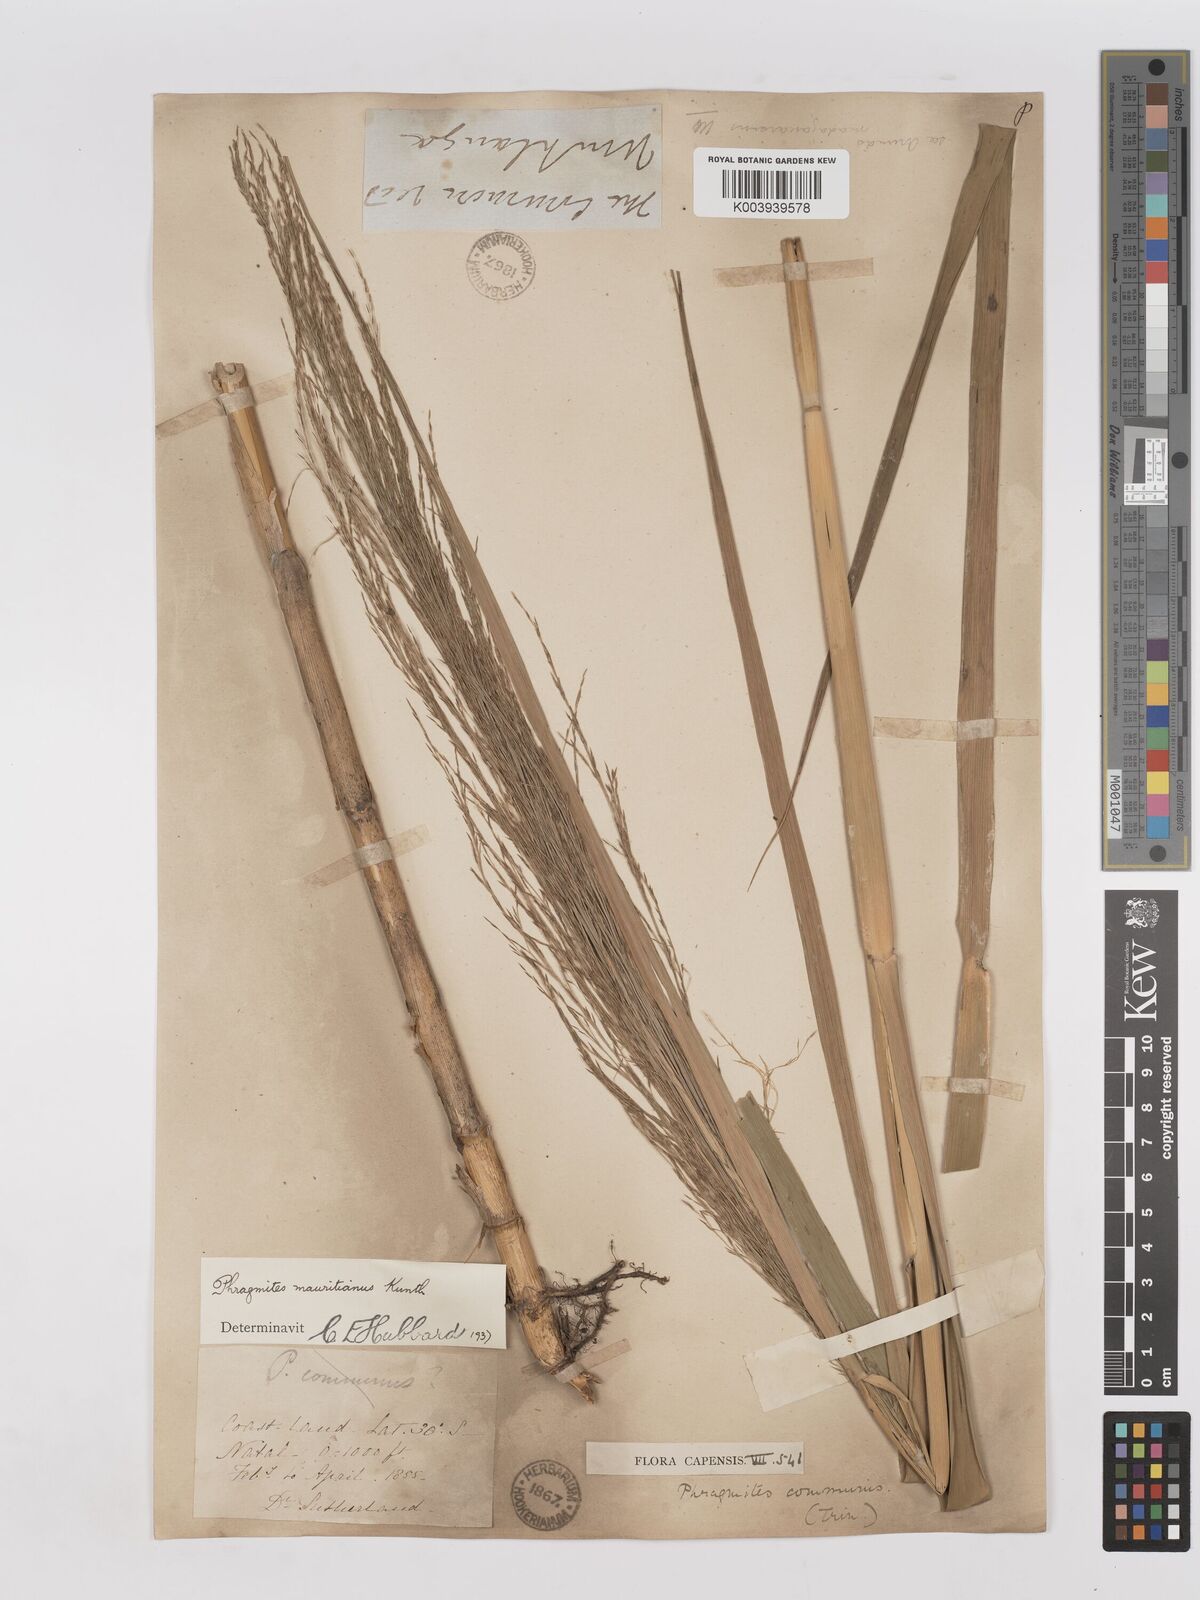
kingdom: Plantae
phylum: Tracheophyta
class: Liliopsida
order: Poales
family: Poaceae
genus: Phragmites
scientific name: Phragmites mauritianus
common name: Reed grass
